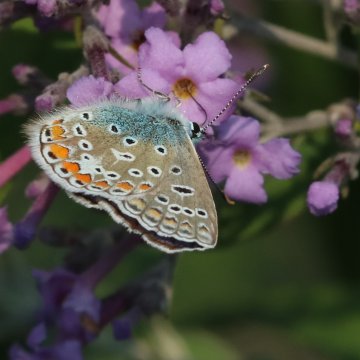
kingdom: Animalia
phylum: Arthropoda
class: Insecta
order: Lepidoptera
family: Lycaenidae
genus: Polyommatus
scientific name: Polyommatus icarus
